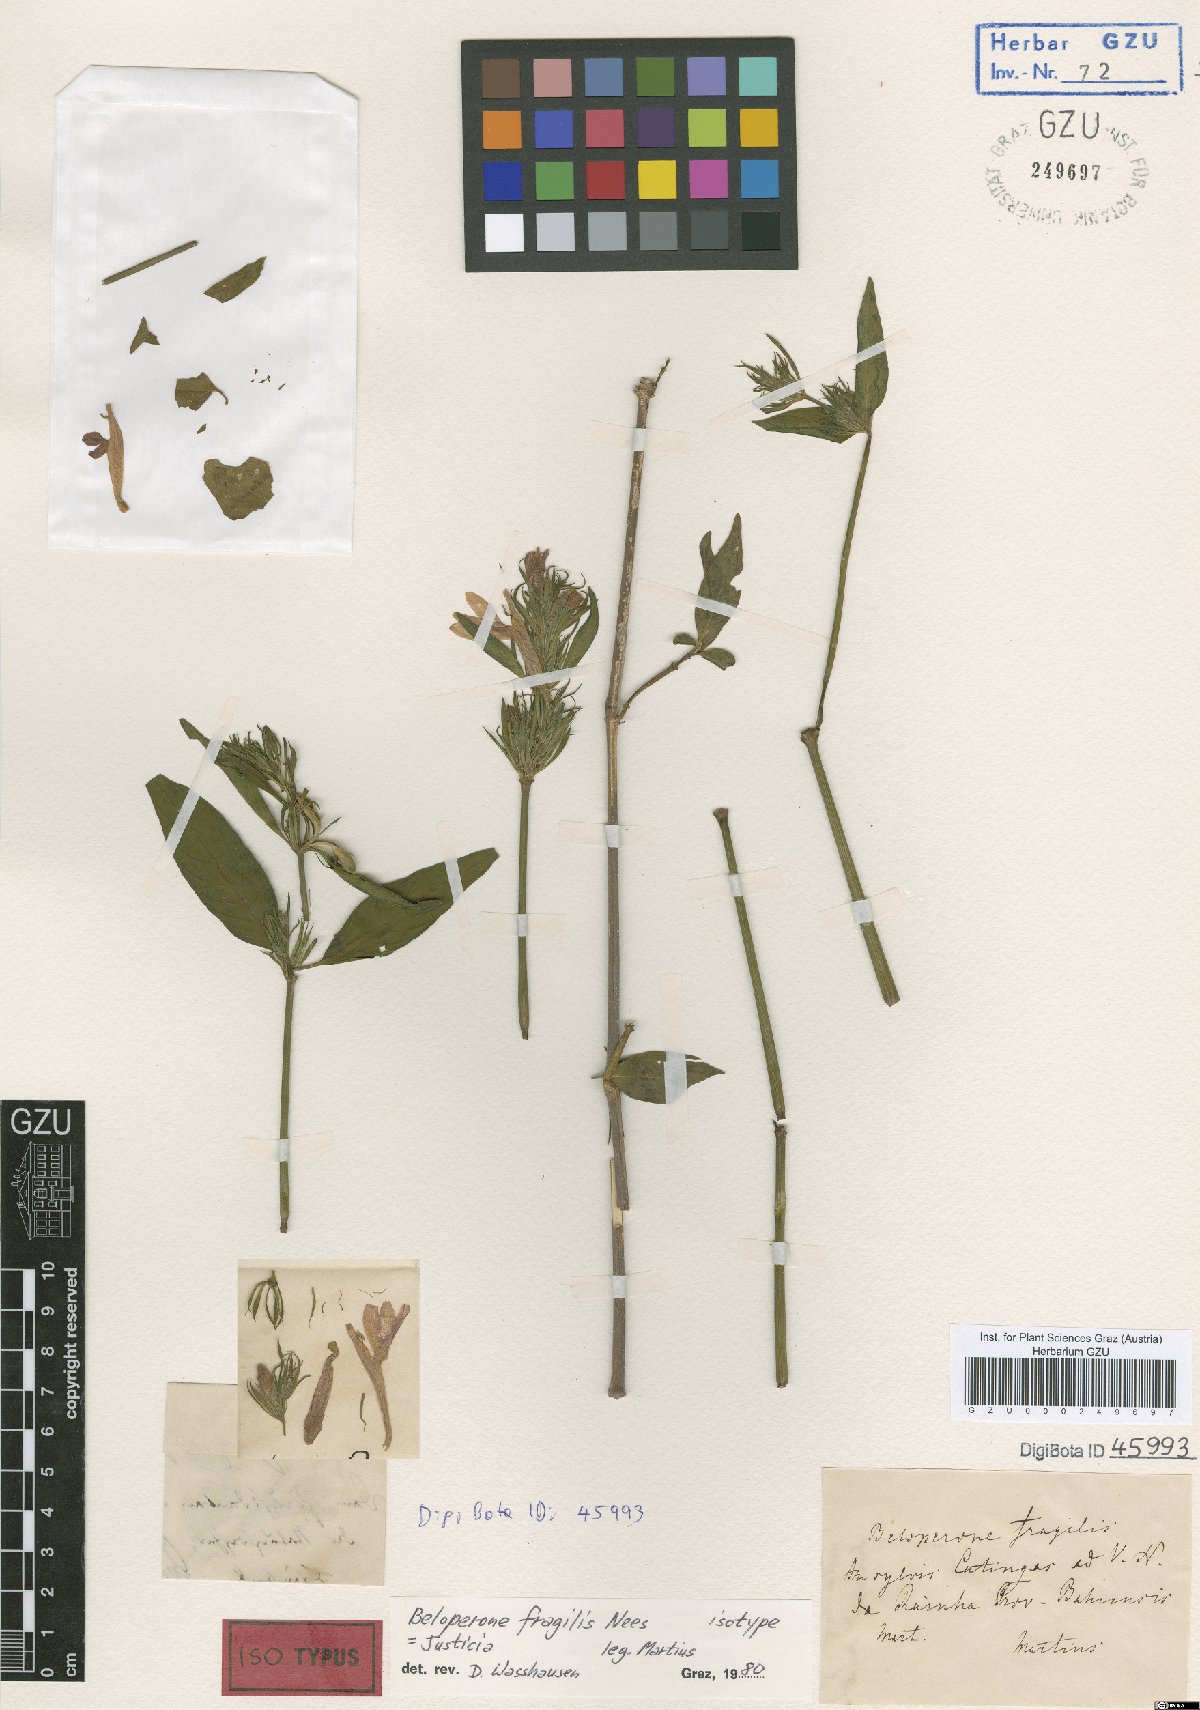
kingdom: Plantae
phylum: Tracheophyta
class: Magnoliopsida
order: Lamiales
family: Acanthaceae
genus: Justicia
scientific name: Justicia Beloperone fragilis
